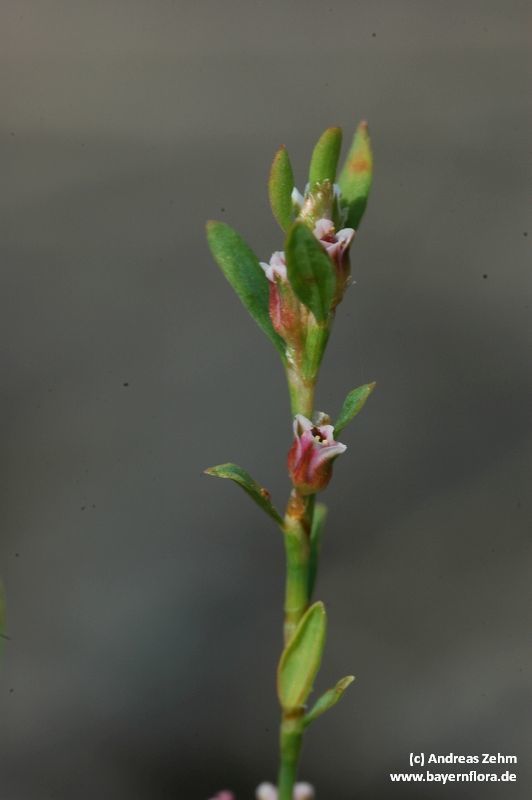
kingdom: Plantae
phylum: Tracheophyta
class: Magnoliopsida
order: Caryophyllales
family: Polygonaceae
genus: Polygonum
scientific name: Polygonum aviculare
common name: Prostrate knotweed
